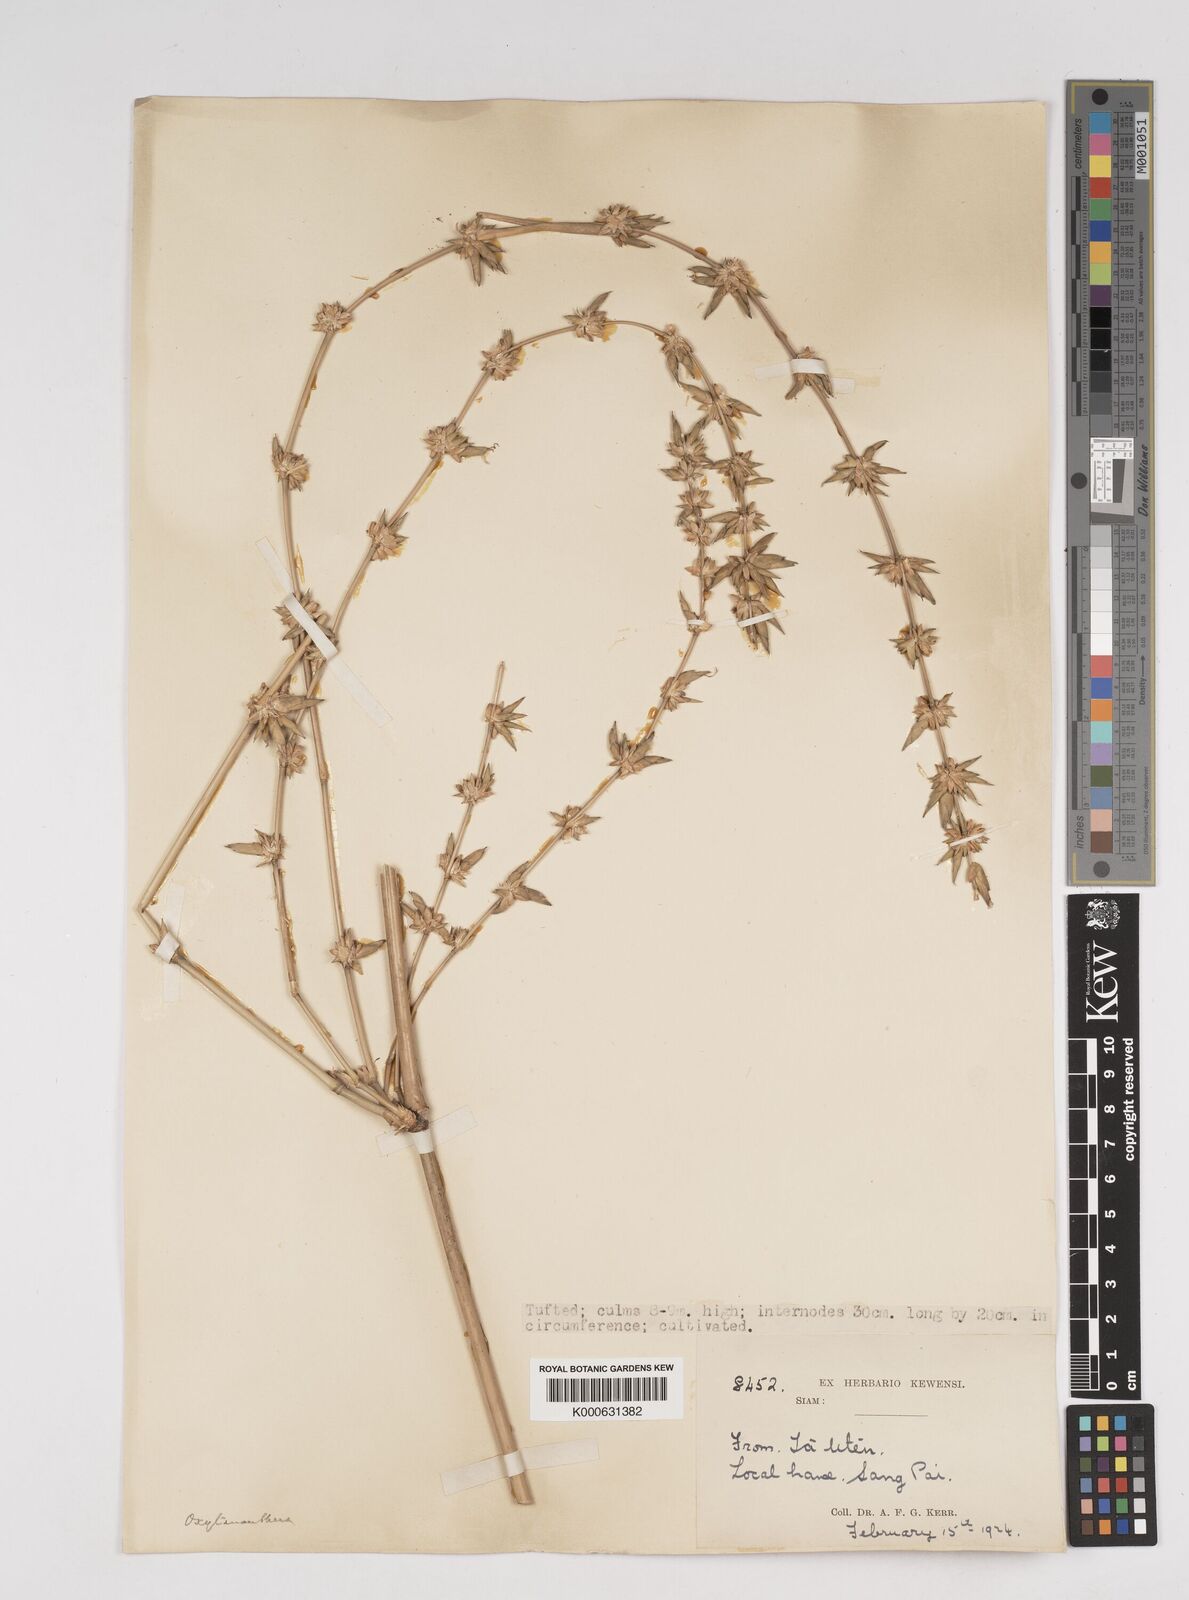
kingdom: Plantae
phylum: Tracheophyta
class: Liliopsida
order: Poales
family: Poaceae
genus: Dendrocalamus
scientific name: Dendrocalamus
